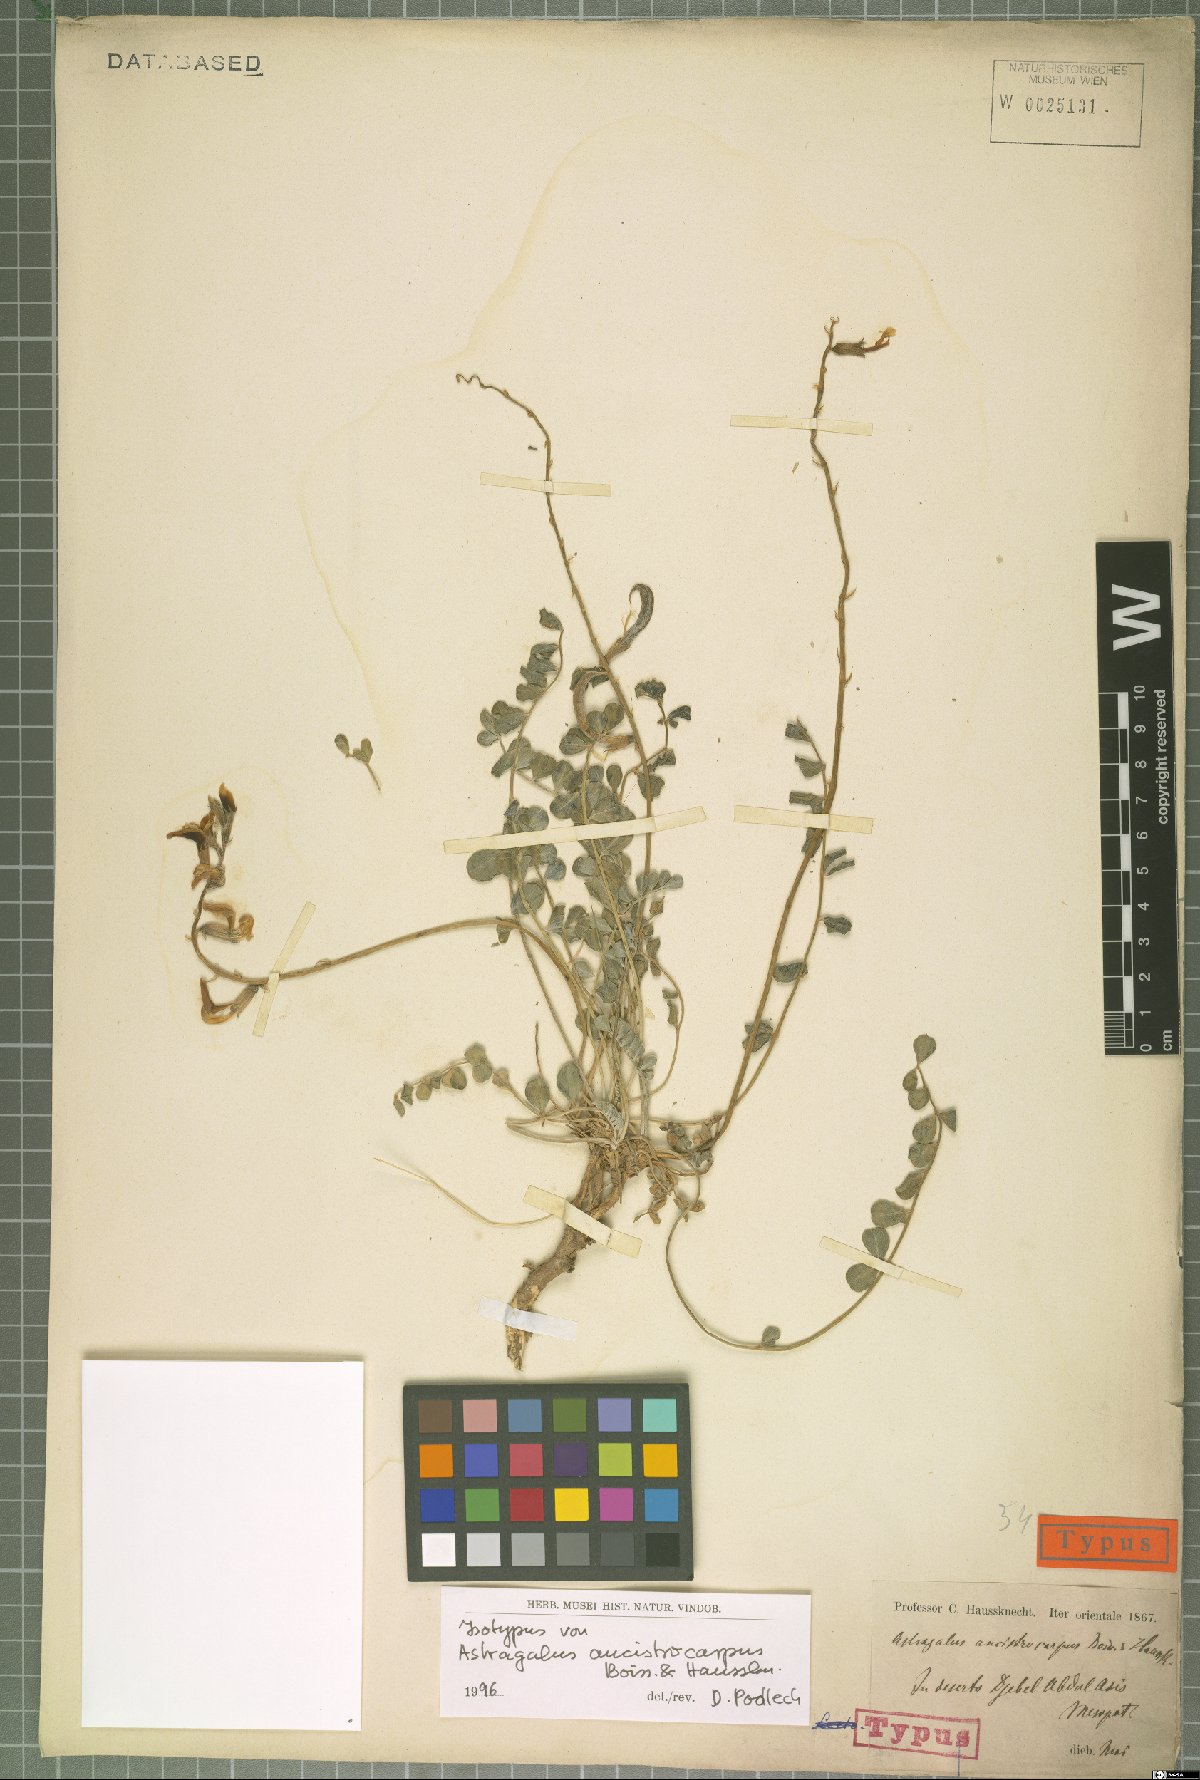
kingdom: Plantae
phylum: Tracheophyta
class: Magnoliopsida
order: Fabales
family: Fabaceae
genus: Astragalus
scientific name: Astragalus ancistrocarpus
